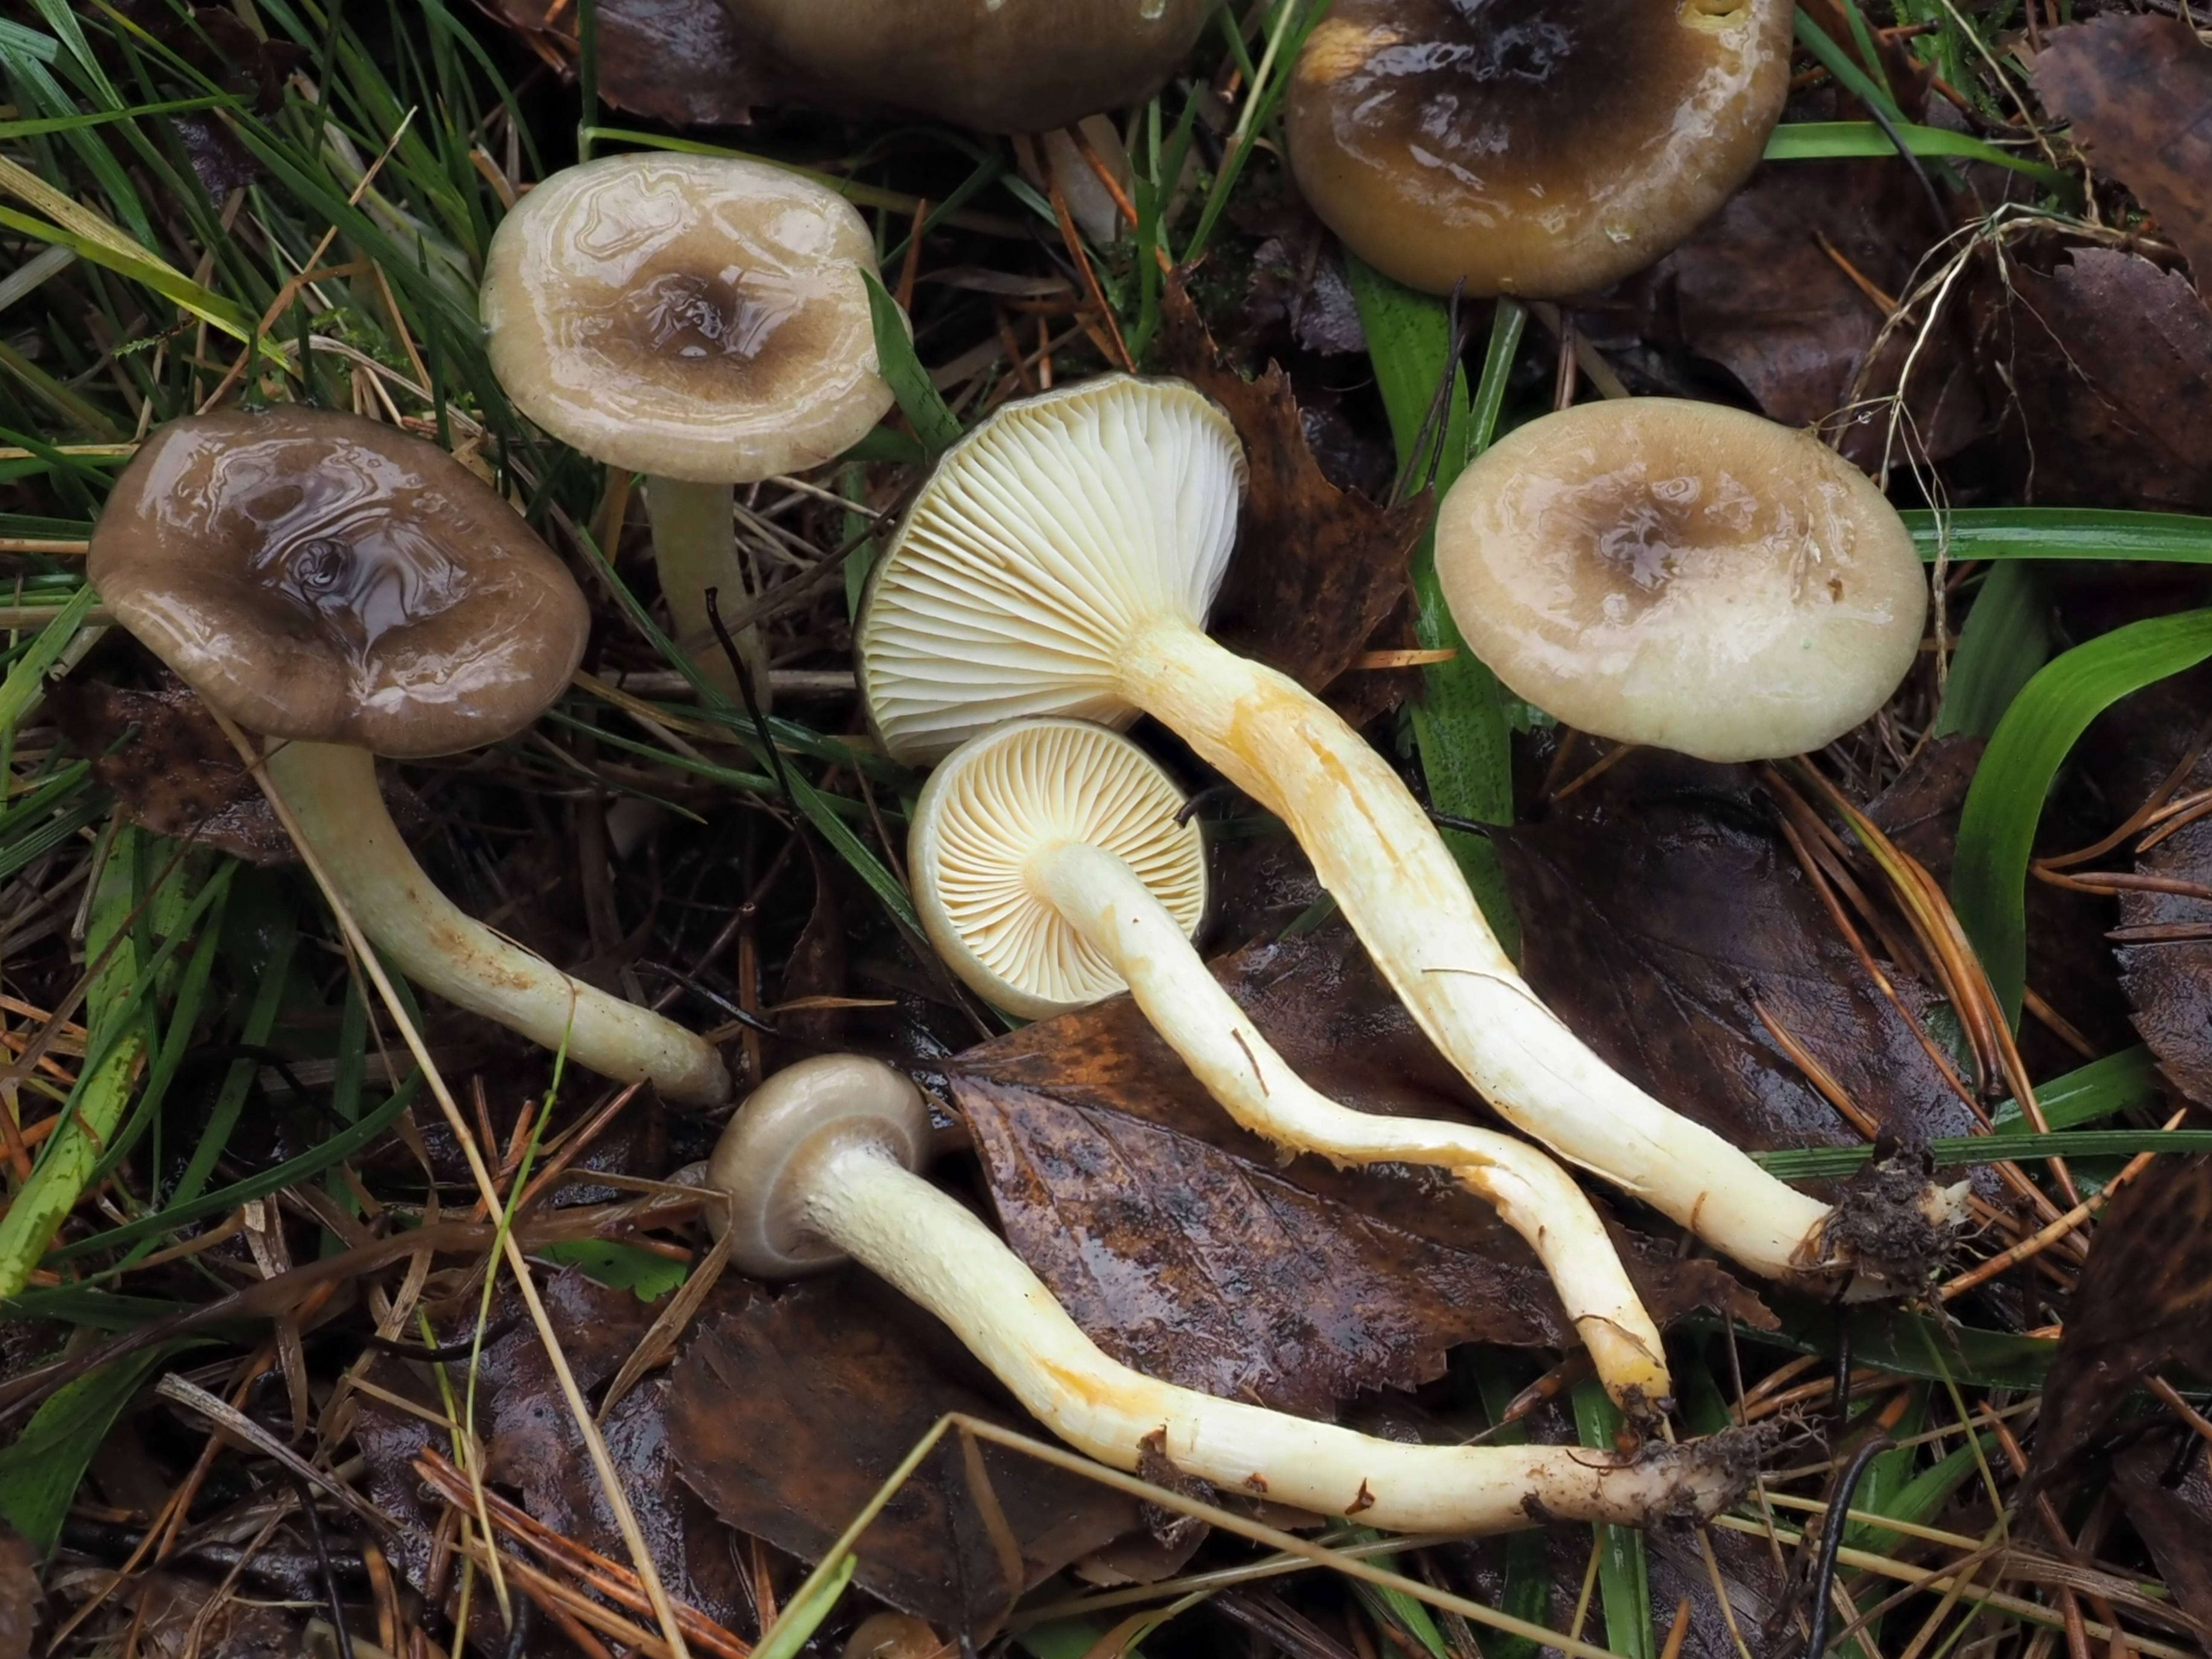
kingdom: Fungi
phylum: Basidiomycota
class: Agaricomycetes
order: Agaricales
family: Hygrophoraceae
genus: Hygrophorus
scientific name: Hygrophorus hypothejus
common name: Herald of winter
